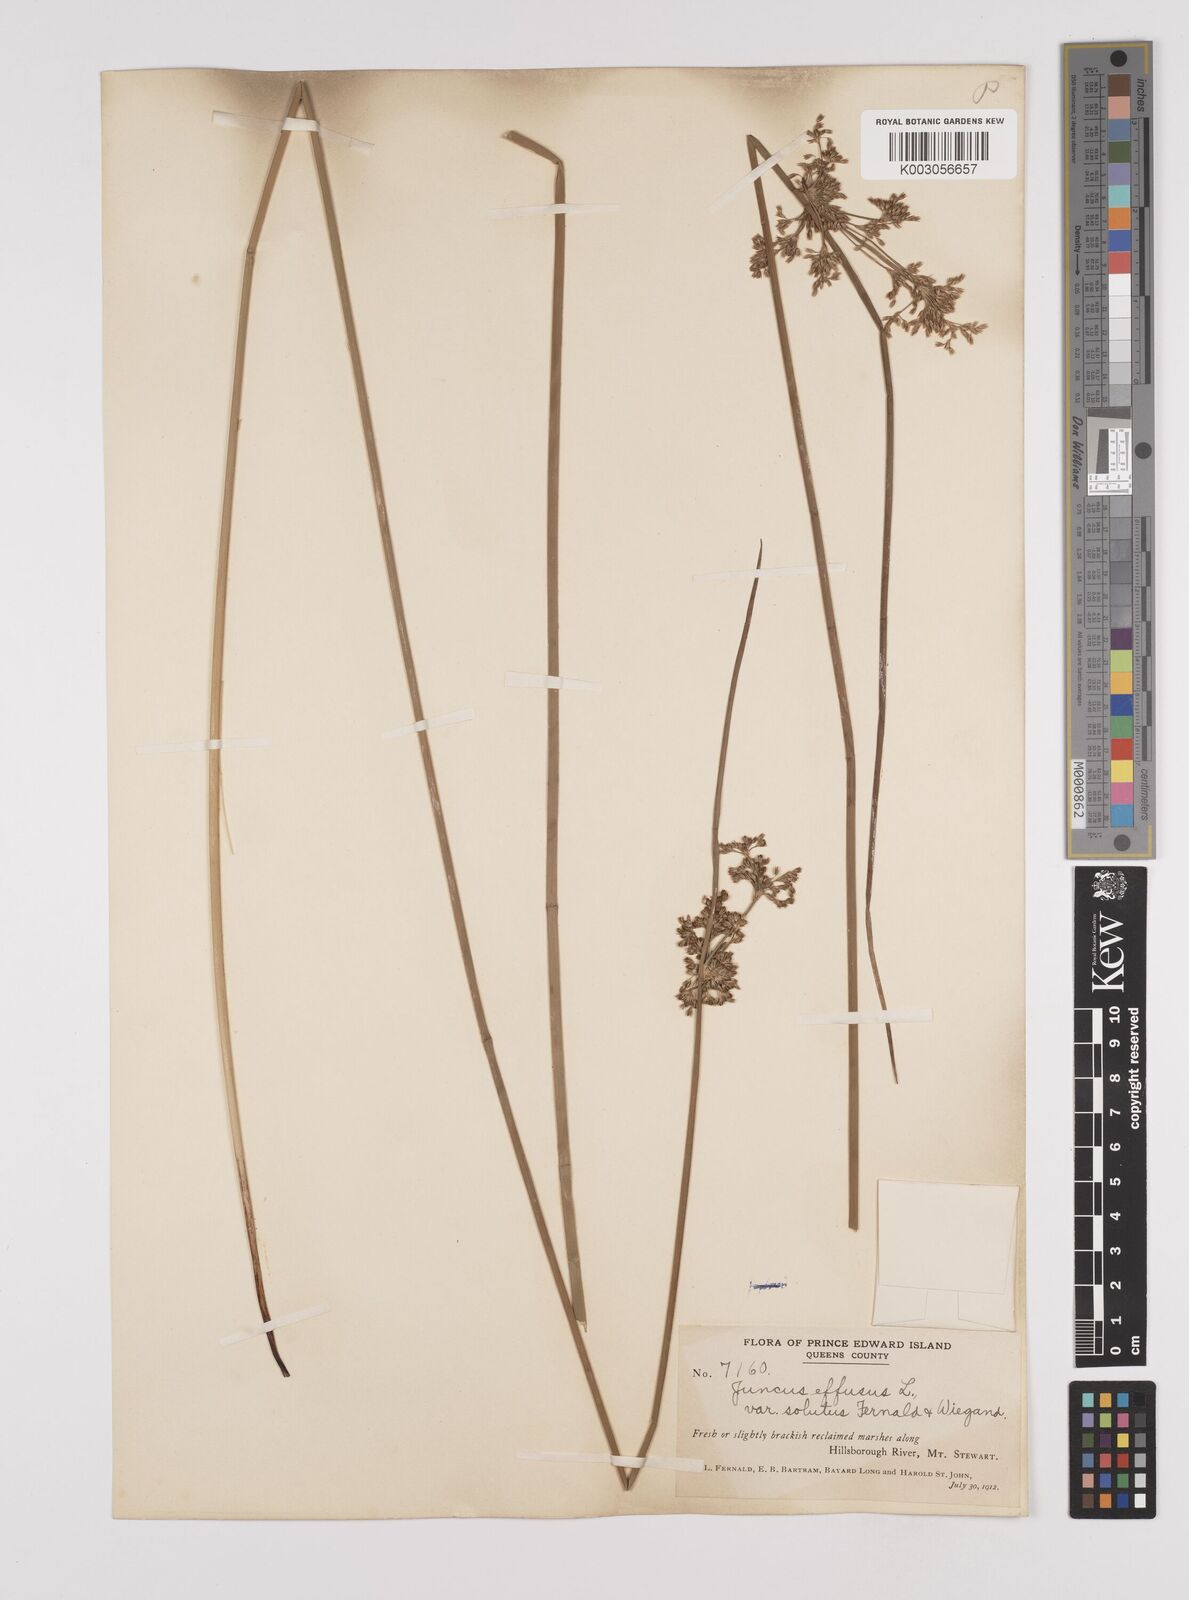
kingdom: Plantae
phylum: Tracheophyta
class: Liliopsida
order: Poales
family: Juncaceae
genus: Juncus
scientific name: Juncus effusus
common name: Soft rush
